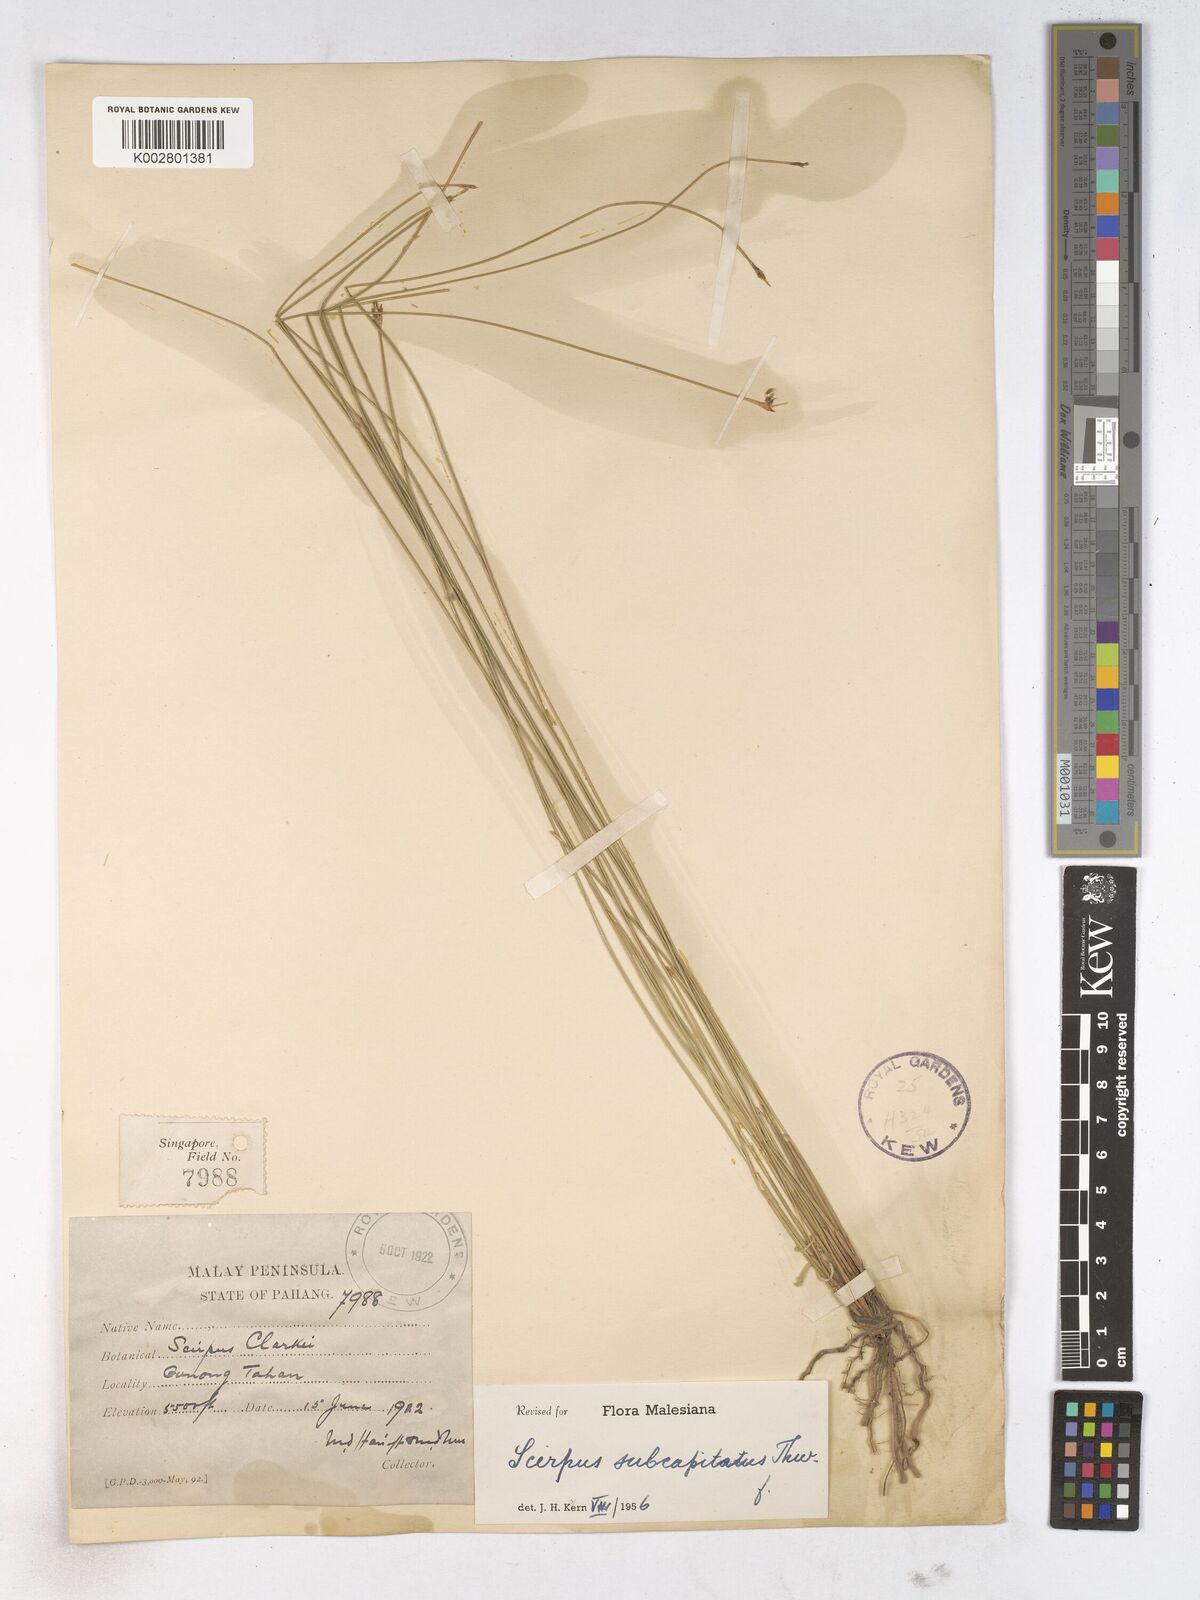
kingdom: Plantae
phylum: Tracheophyta
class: Liliopsida
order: Poales
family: Cyperaceae
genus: Trichophorum
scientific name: Trichophorum subcapitatum
